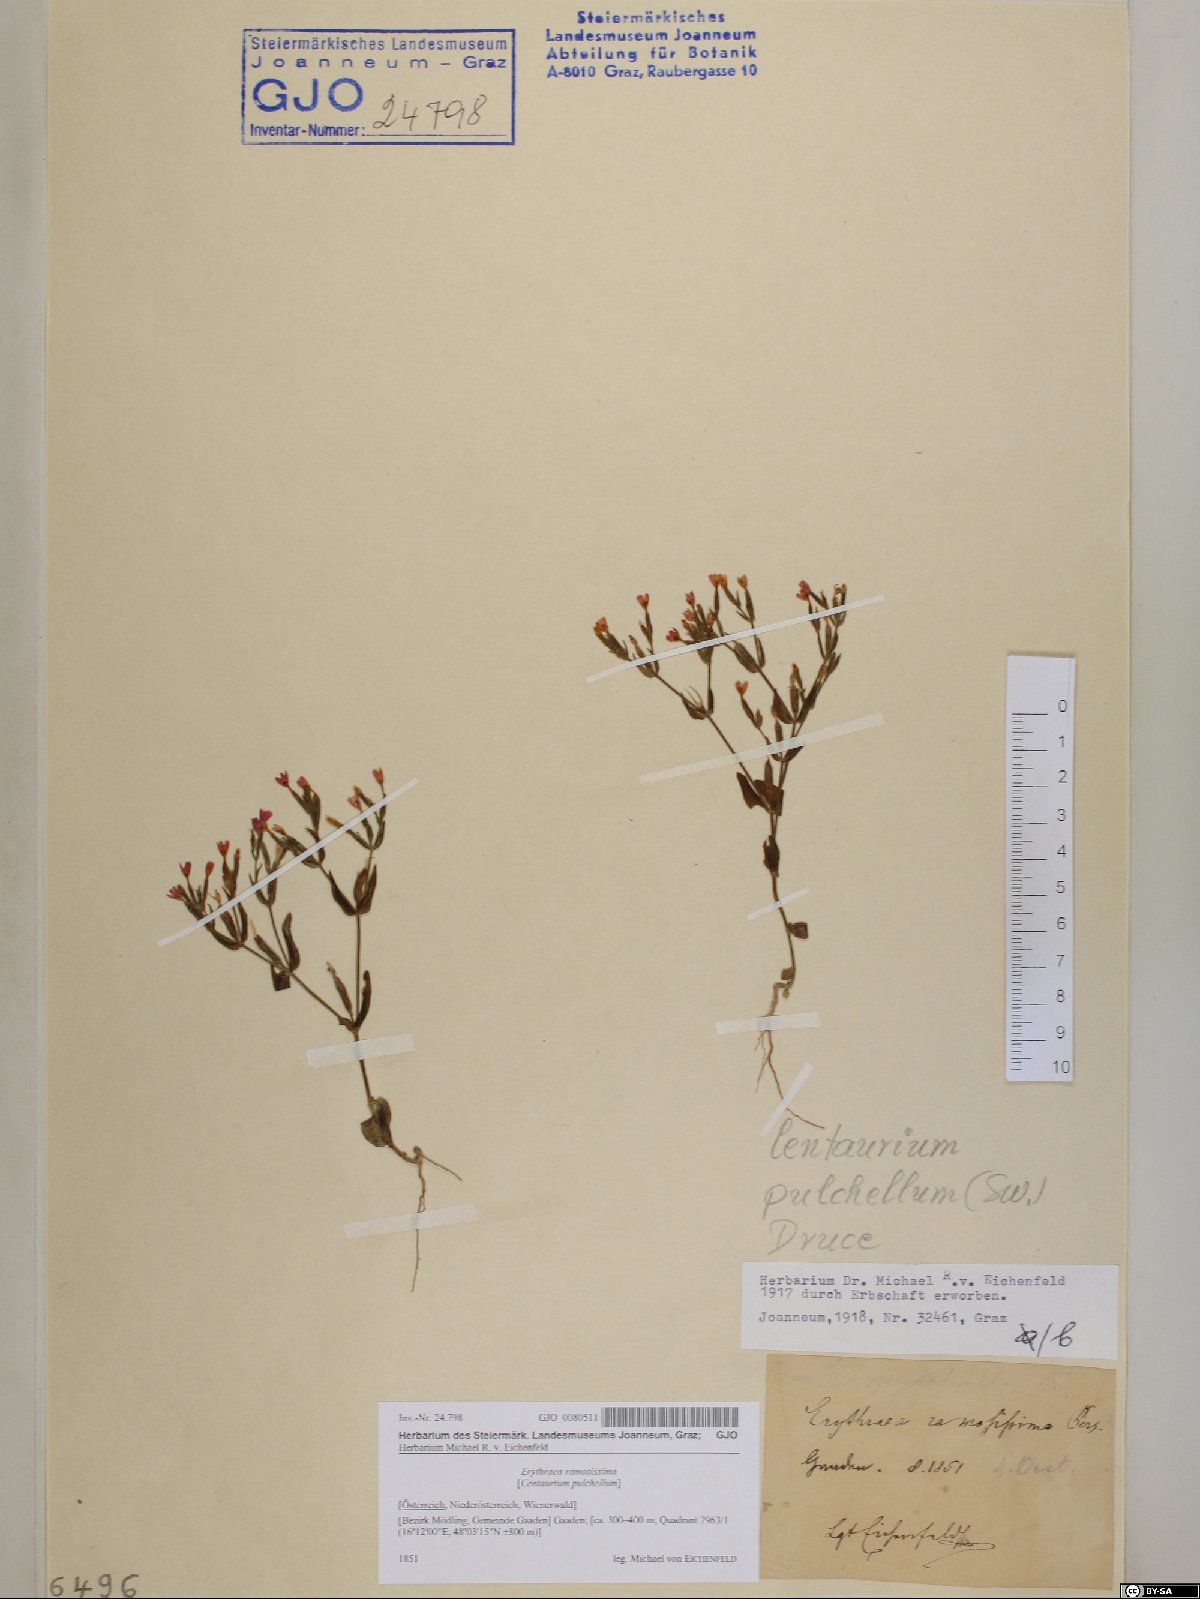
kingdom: Plantae
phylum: Tracheophyta
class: Magnoliopsida
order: Gentianales
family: Gentianaceae
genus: Centaurium
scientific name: Centaurium pulchellum
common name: Lesser centaury
